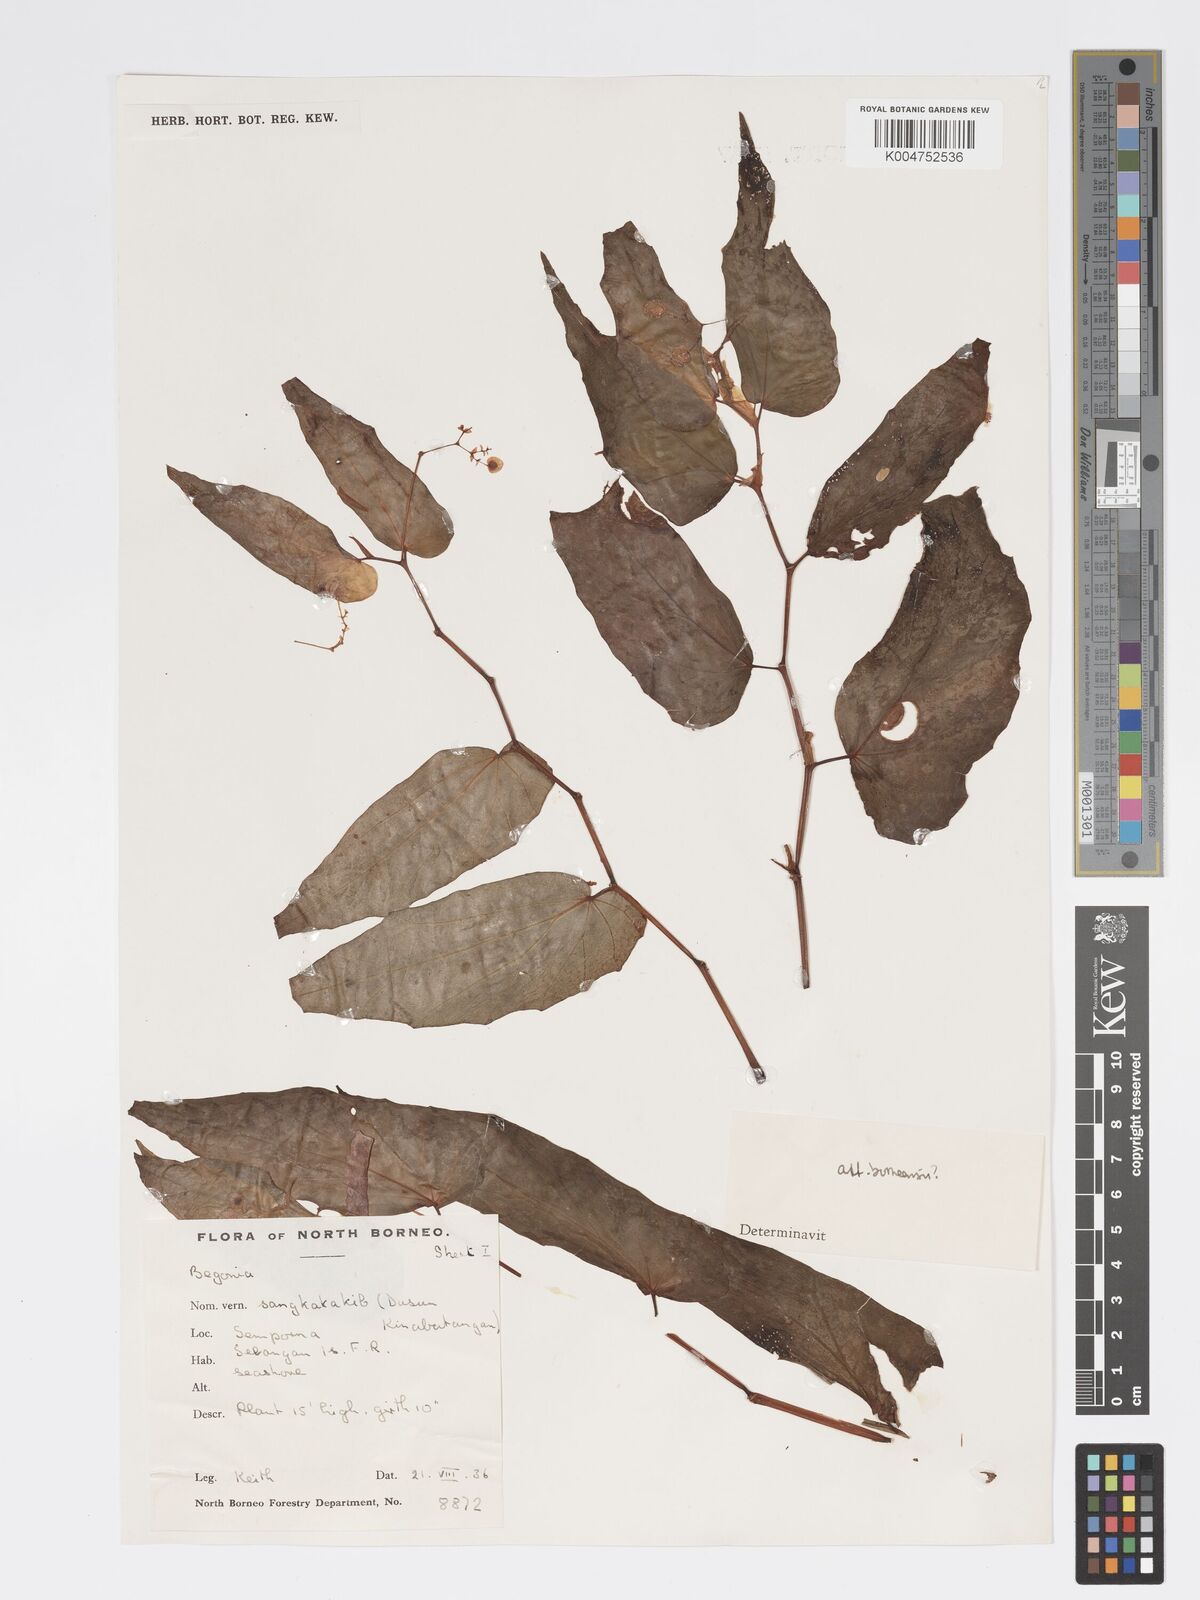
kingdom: Plantae
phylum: Tracheophyta
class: Magnoliopsida
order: Cucurbitales
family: Begoniaceae
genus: Begonia
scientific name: Begonia pryeriana
